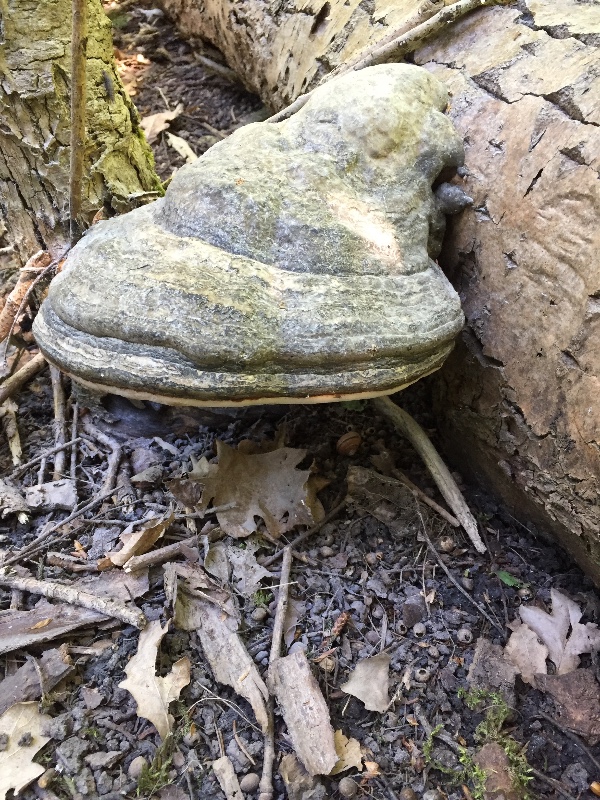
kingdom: Fungi
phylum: Basidiomycota
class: Agaricomycetes
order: Polyporales
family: Polyporaceae
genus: Fomes
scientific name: Fomes fomentarius
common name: tøndersvamp
